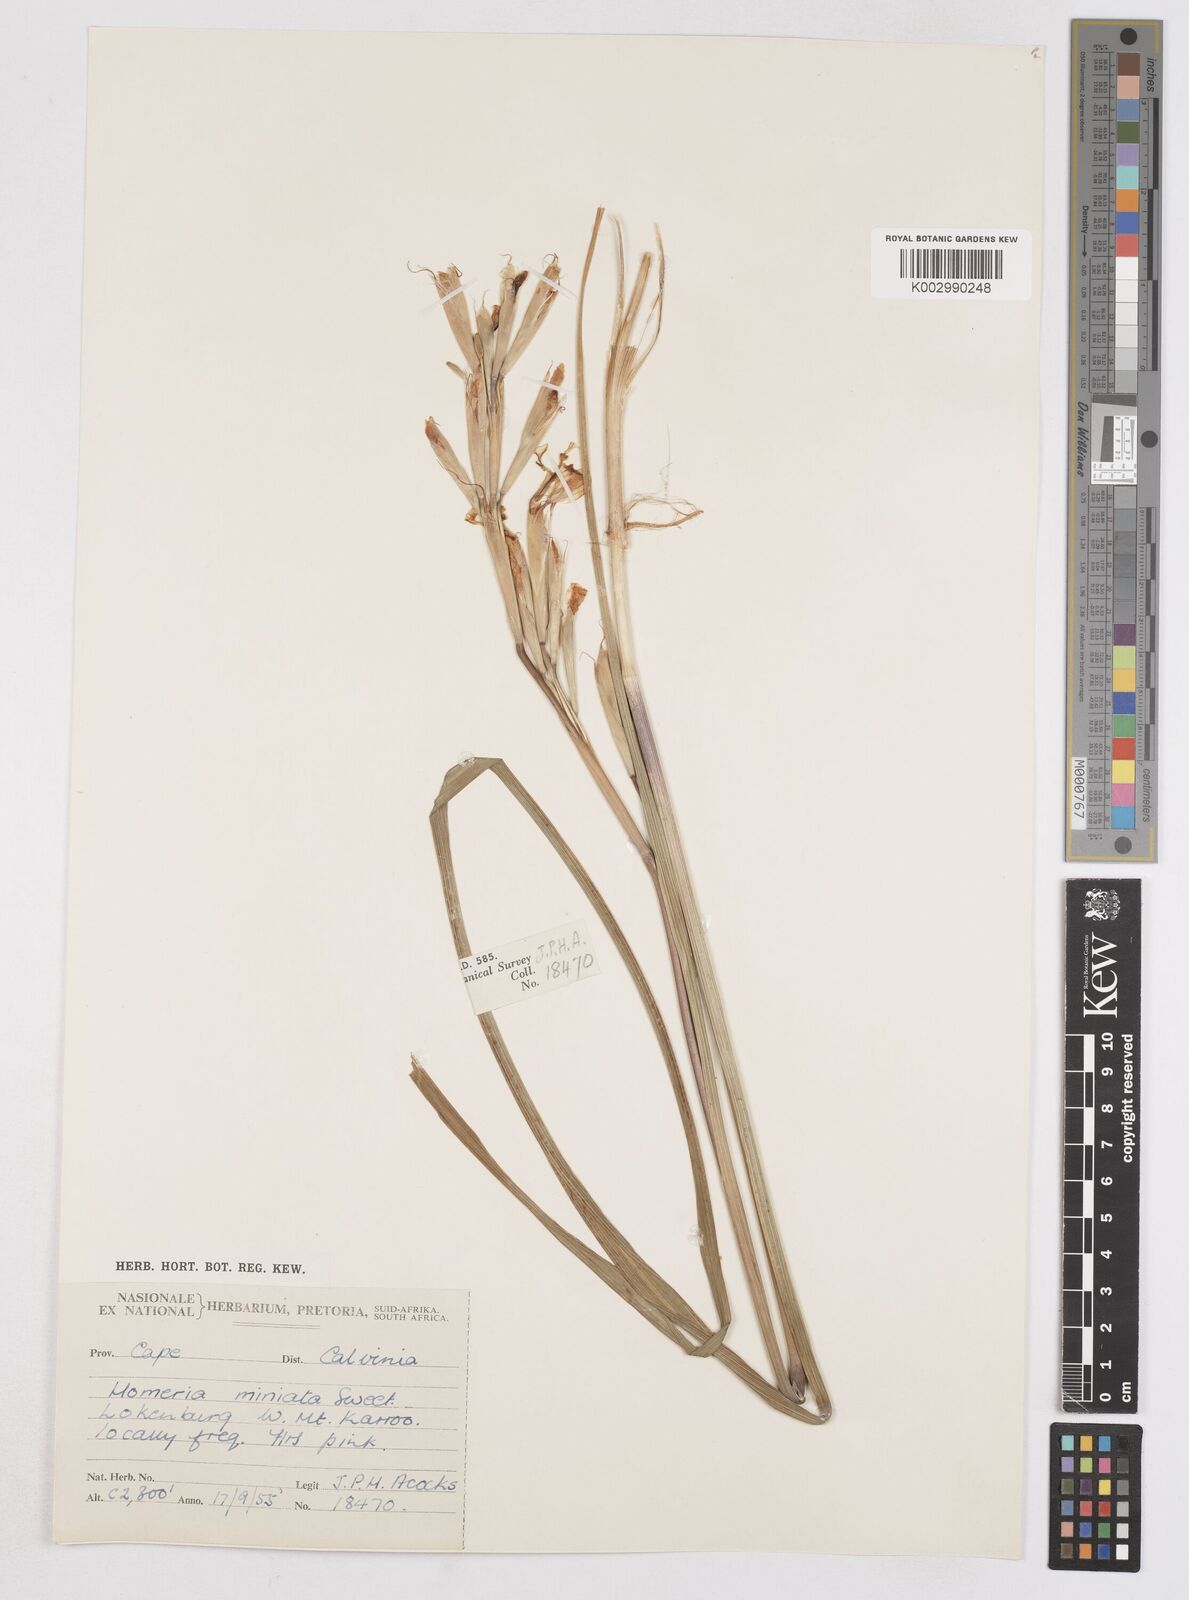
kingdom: Plantae
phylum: Tracheophyta
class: Liliopsida
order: Asparagales
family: Iridaceae
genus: Moraea
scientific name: Moraea miniata
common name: Two-leaf cape-tulip
